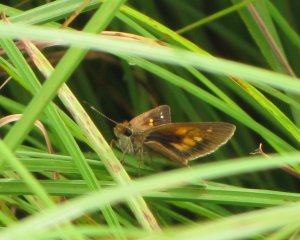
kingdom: Animalia
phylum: Arthropoda
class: Insecta
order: Lepidoptera
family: Hesperiidae
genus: Poanes
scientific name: Poanes viator
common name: Broad-winged Skipper
